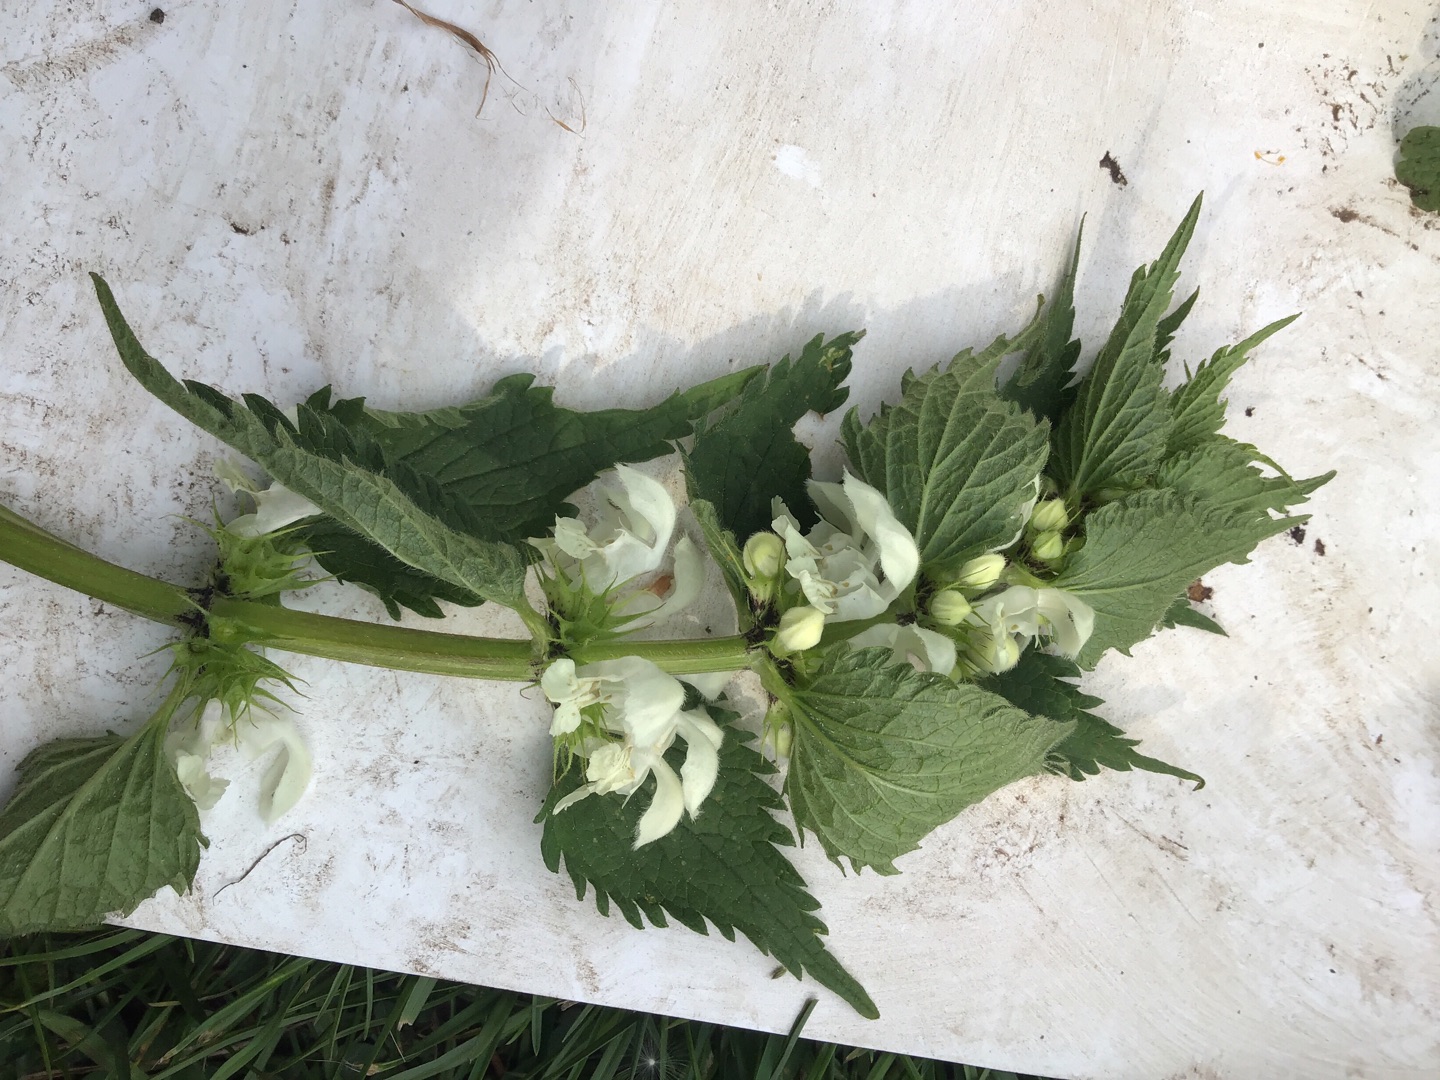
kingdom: Plantae
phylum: Tracheophyta
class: Magnoliopsida
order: Lamiales
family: Lamiaceae
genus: Lamium
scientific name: Lamium album
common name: Døvnælde
